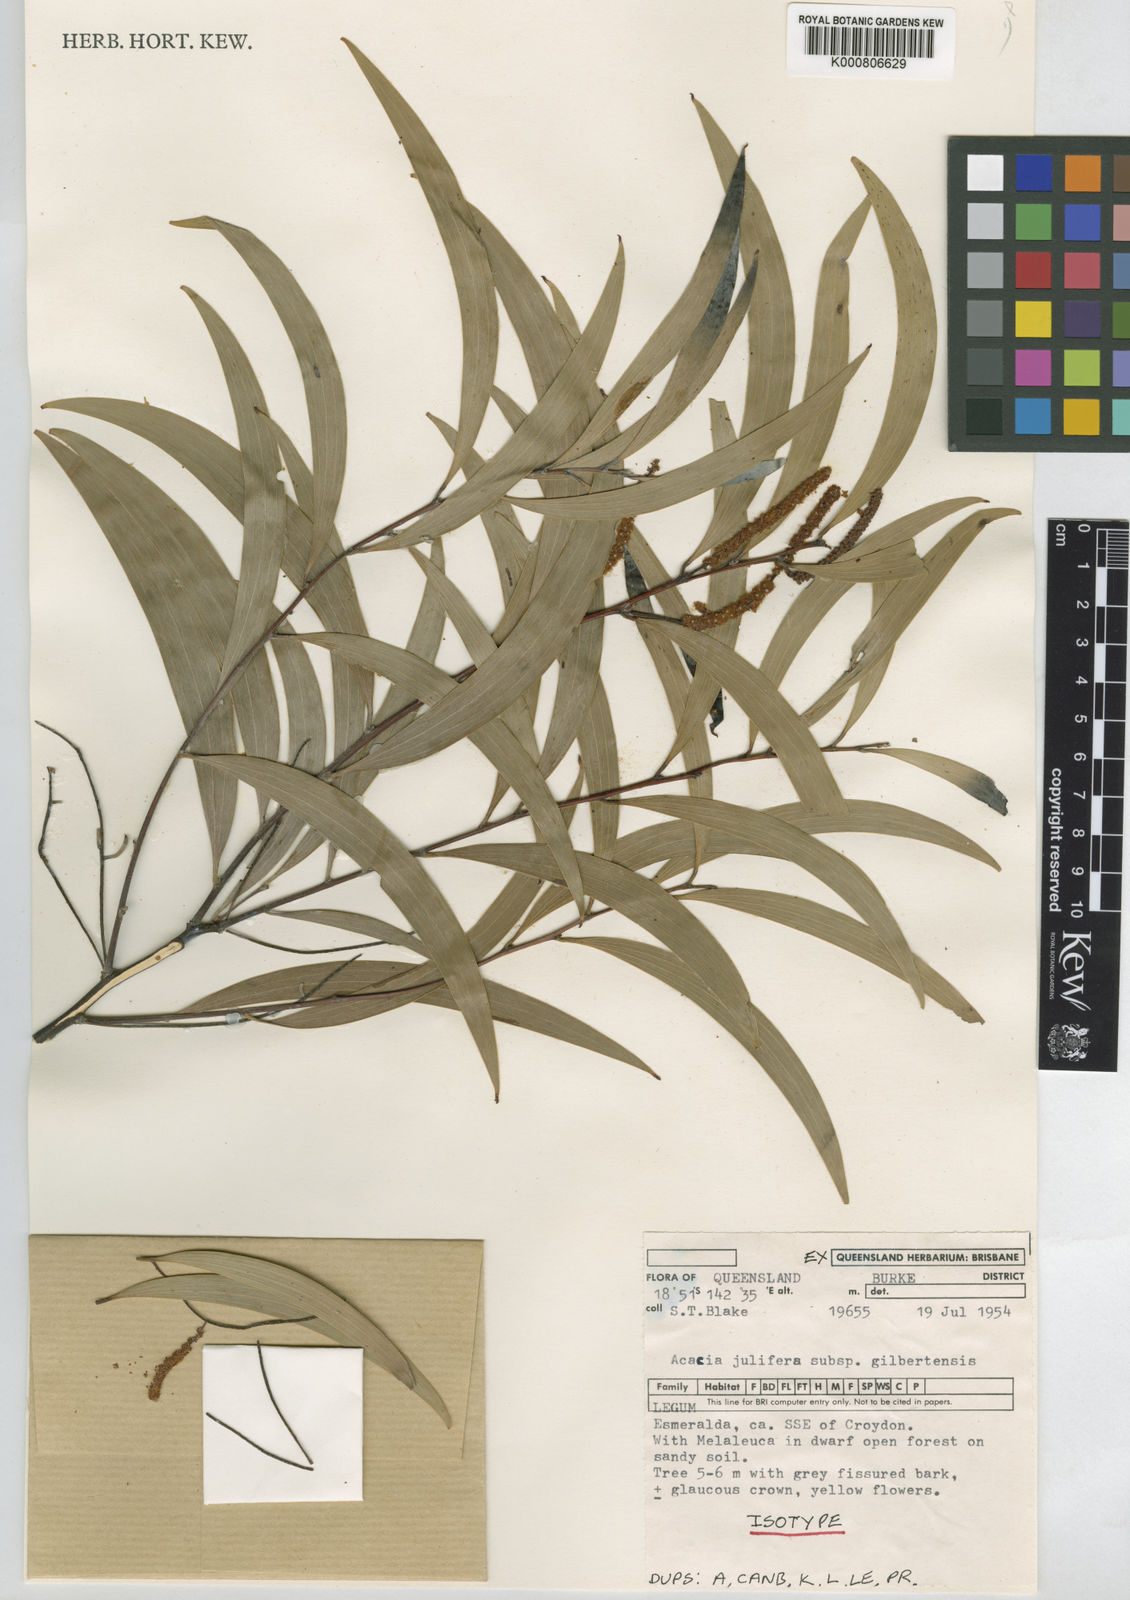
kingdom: Plantae
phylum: Tracheophyta
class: Magnoliopsida
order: Fabales
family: Fabaceae
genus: Acacia
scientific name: Acacia julifera
